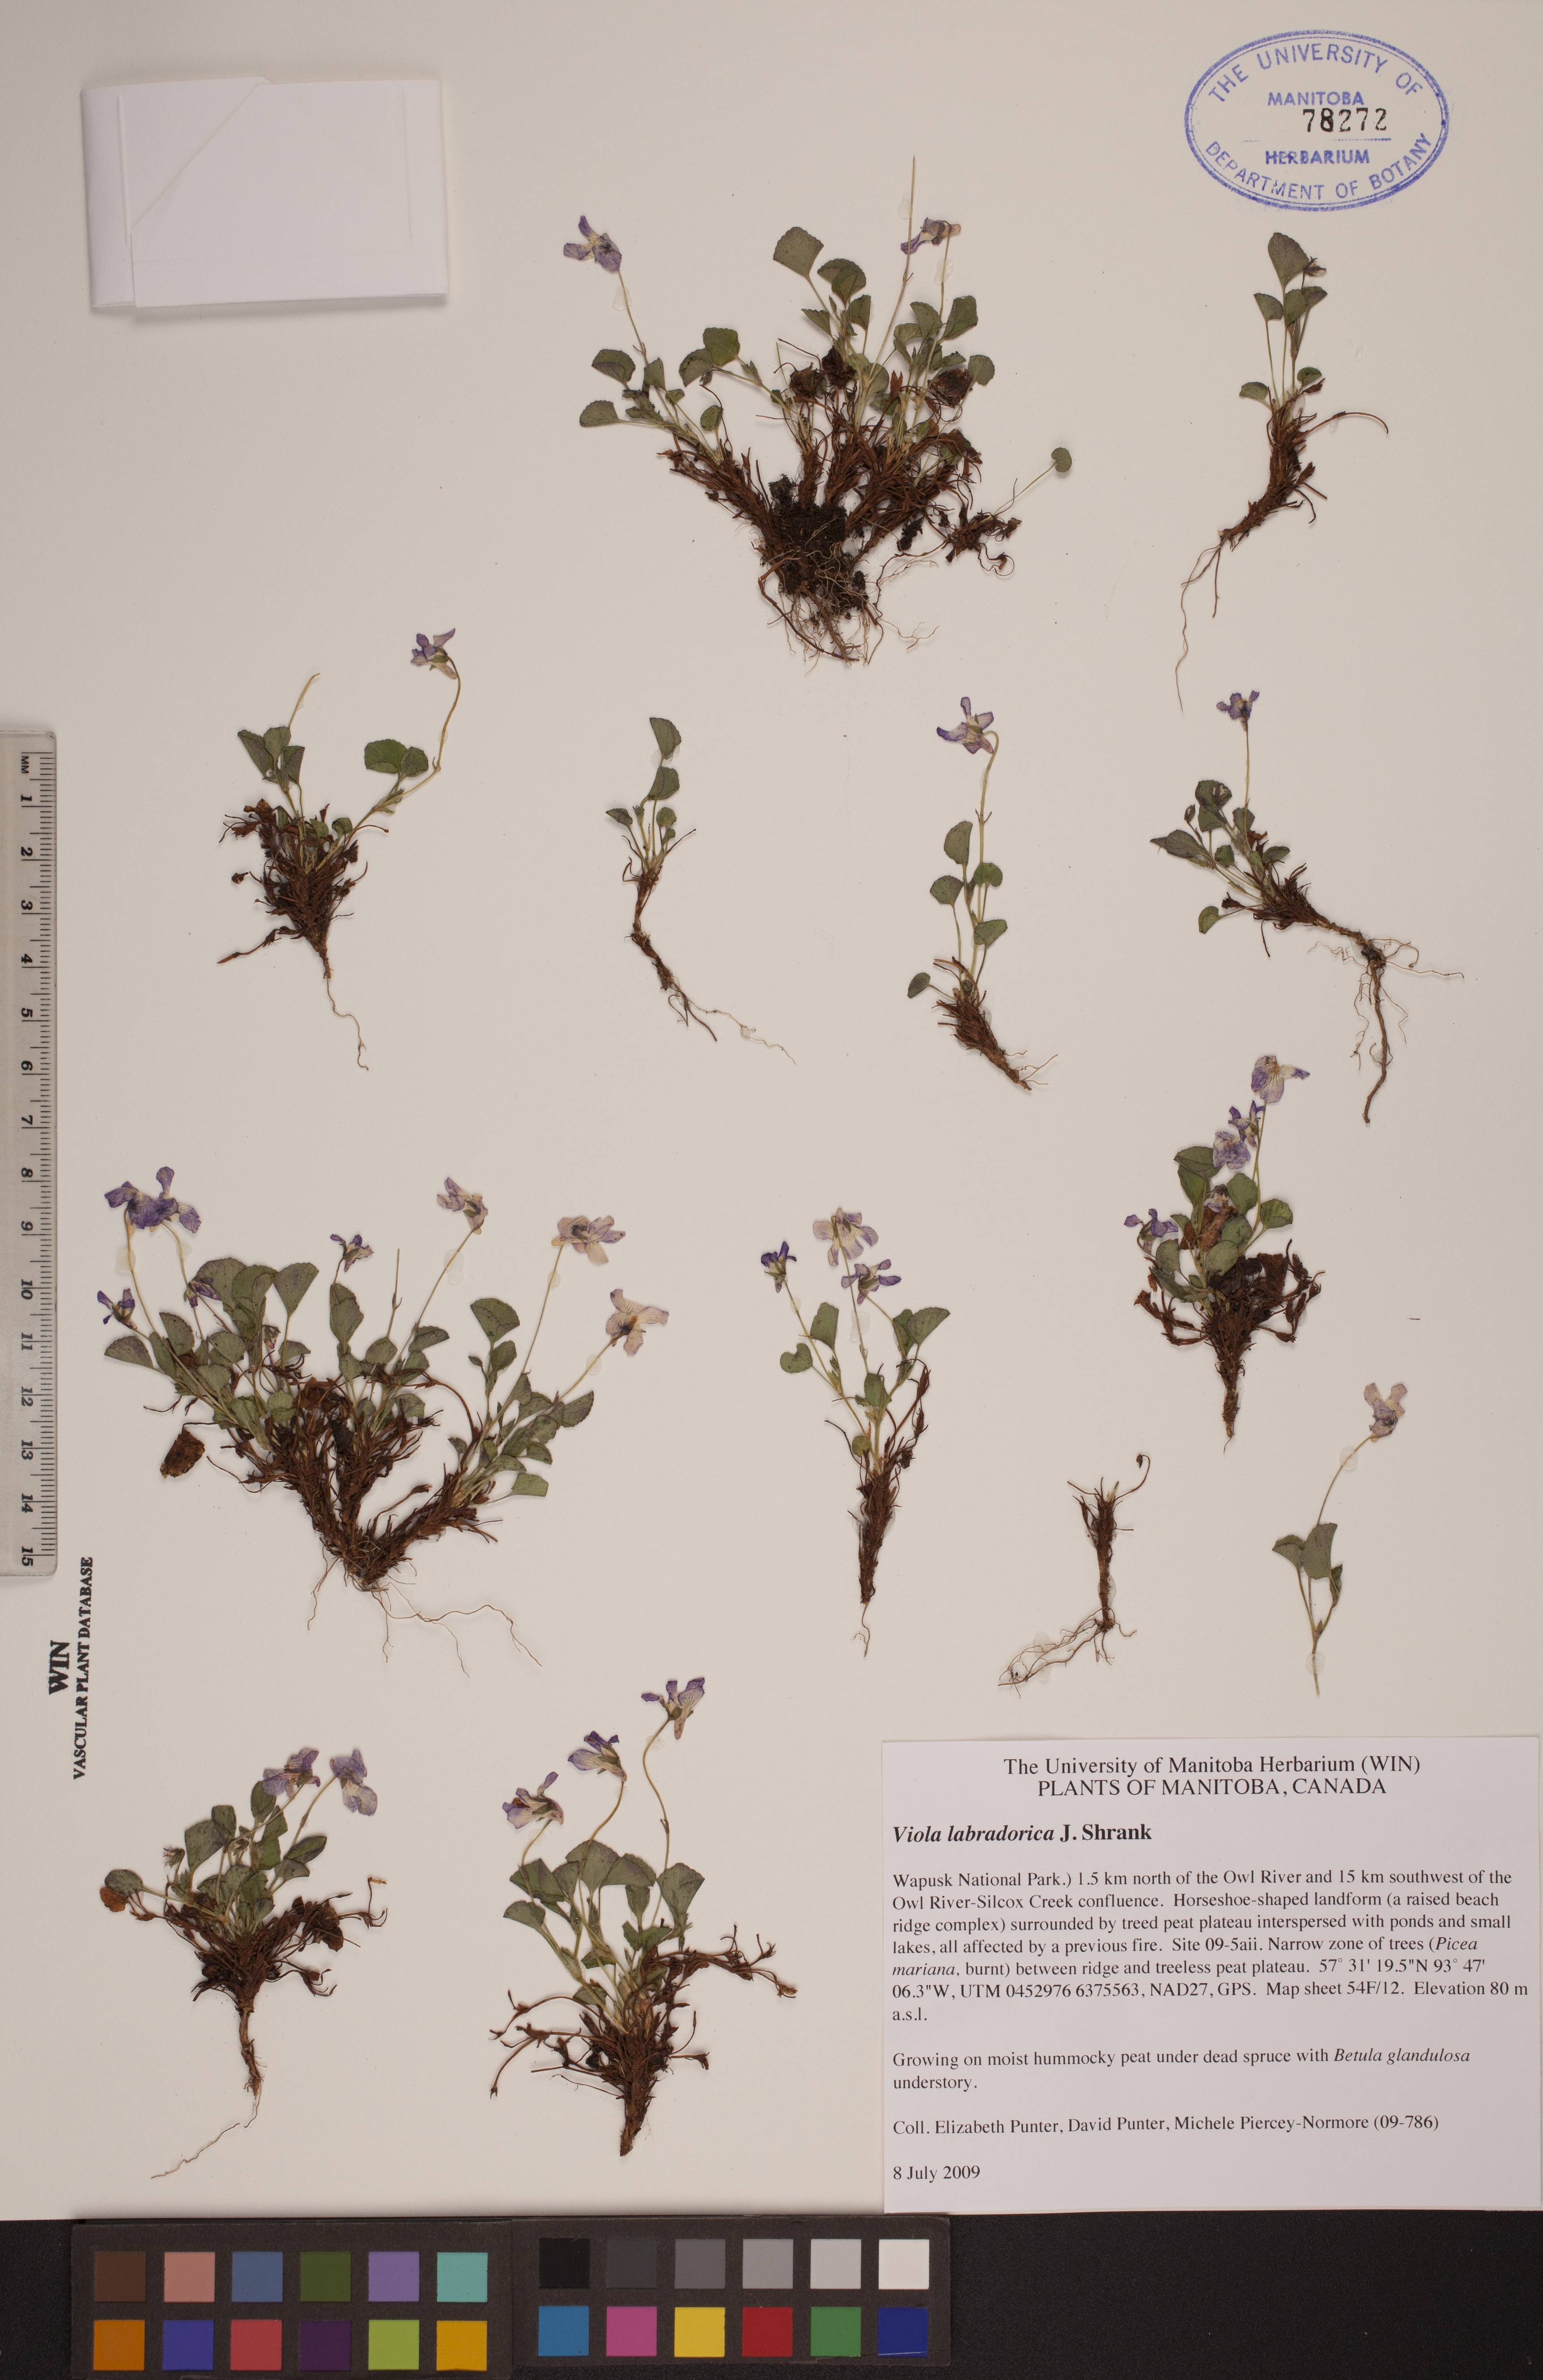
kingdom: Plantae
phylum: Tracheophyta
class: Magnoliopsida
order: Malpighiales
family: Violaceae
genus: Viola
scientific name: Viola labradorica
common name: Labrador violet
